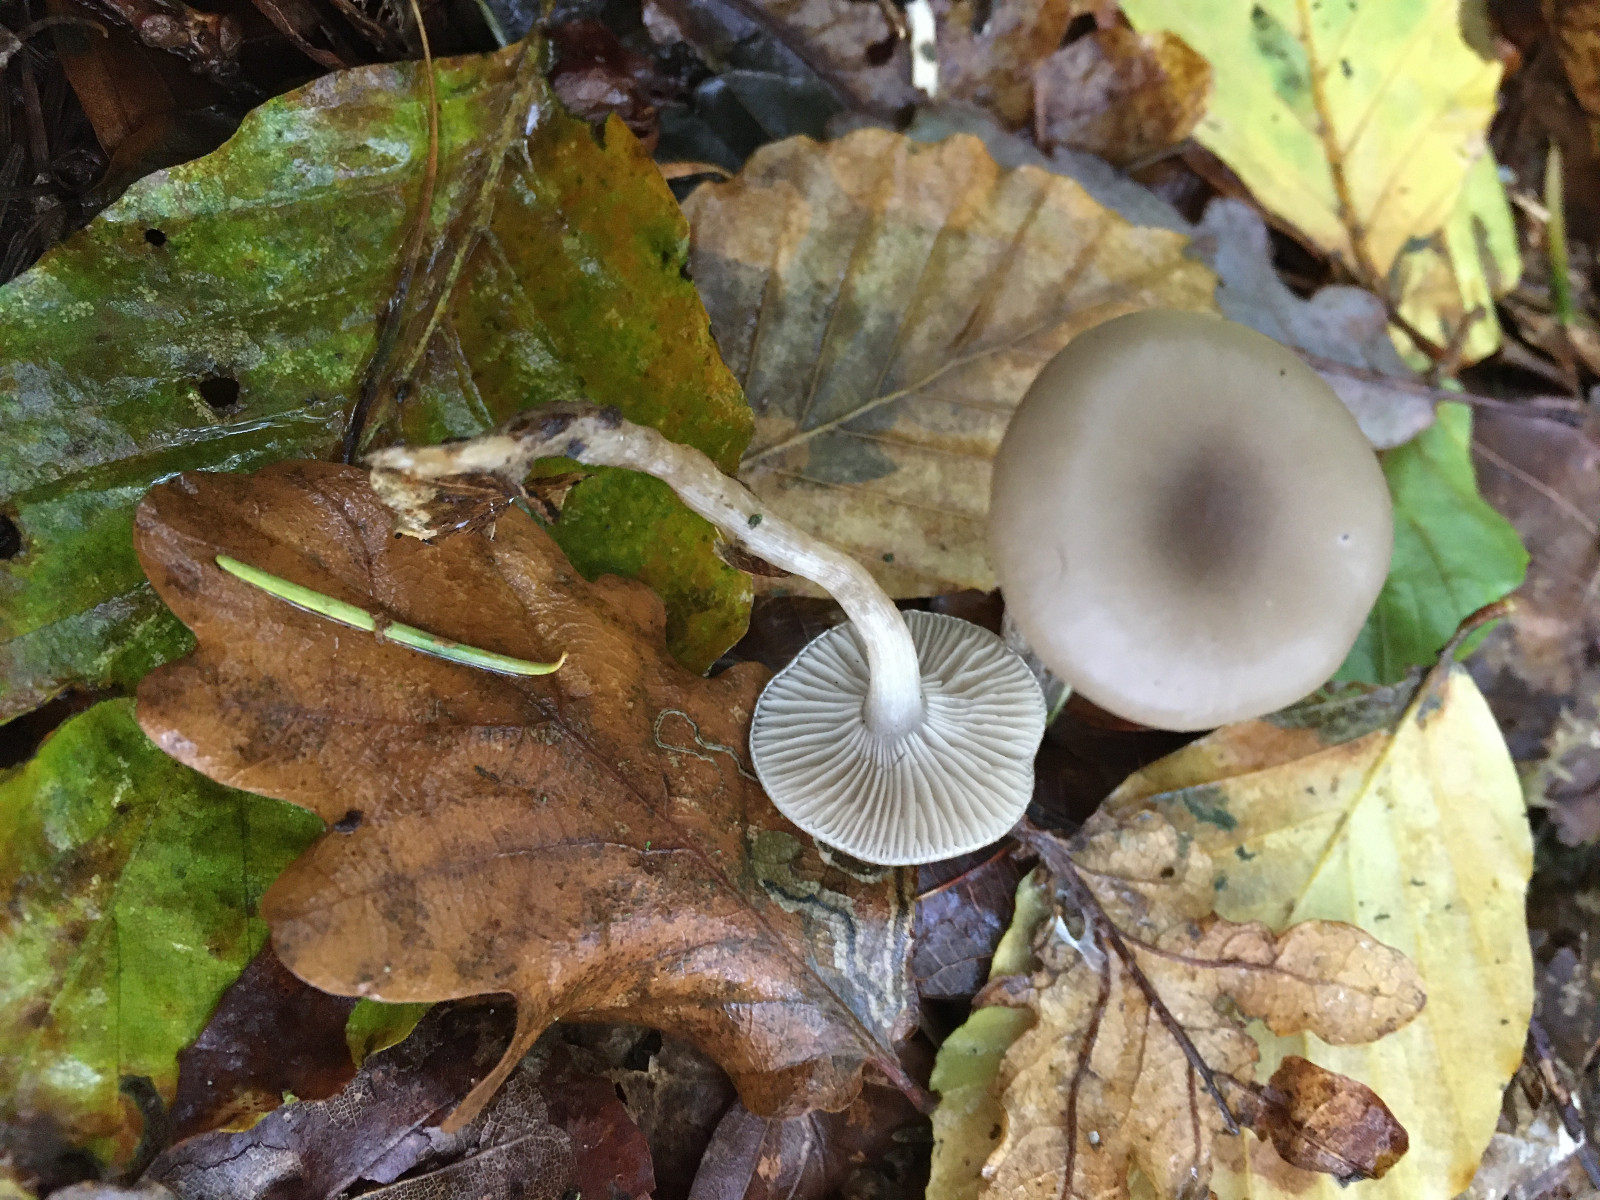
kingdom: Fungi
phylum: Basidiomycota
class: Agaricomycetes
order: Agaricales
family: Tricholomataceae
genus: Clitocybe
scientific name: Clitocybe
